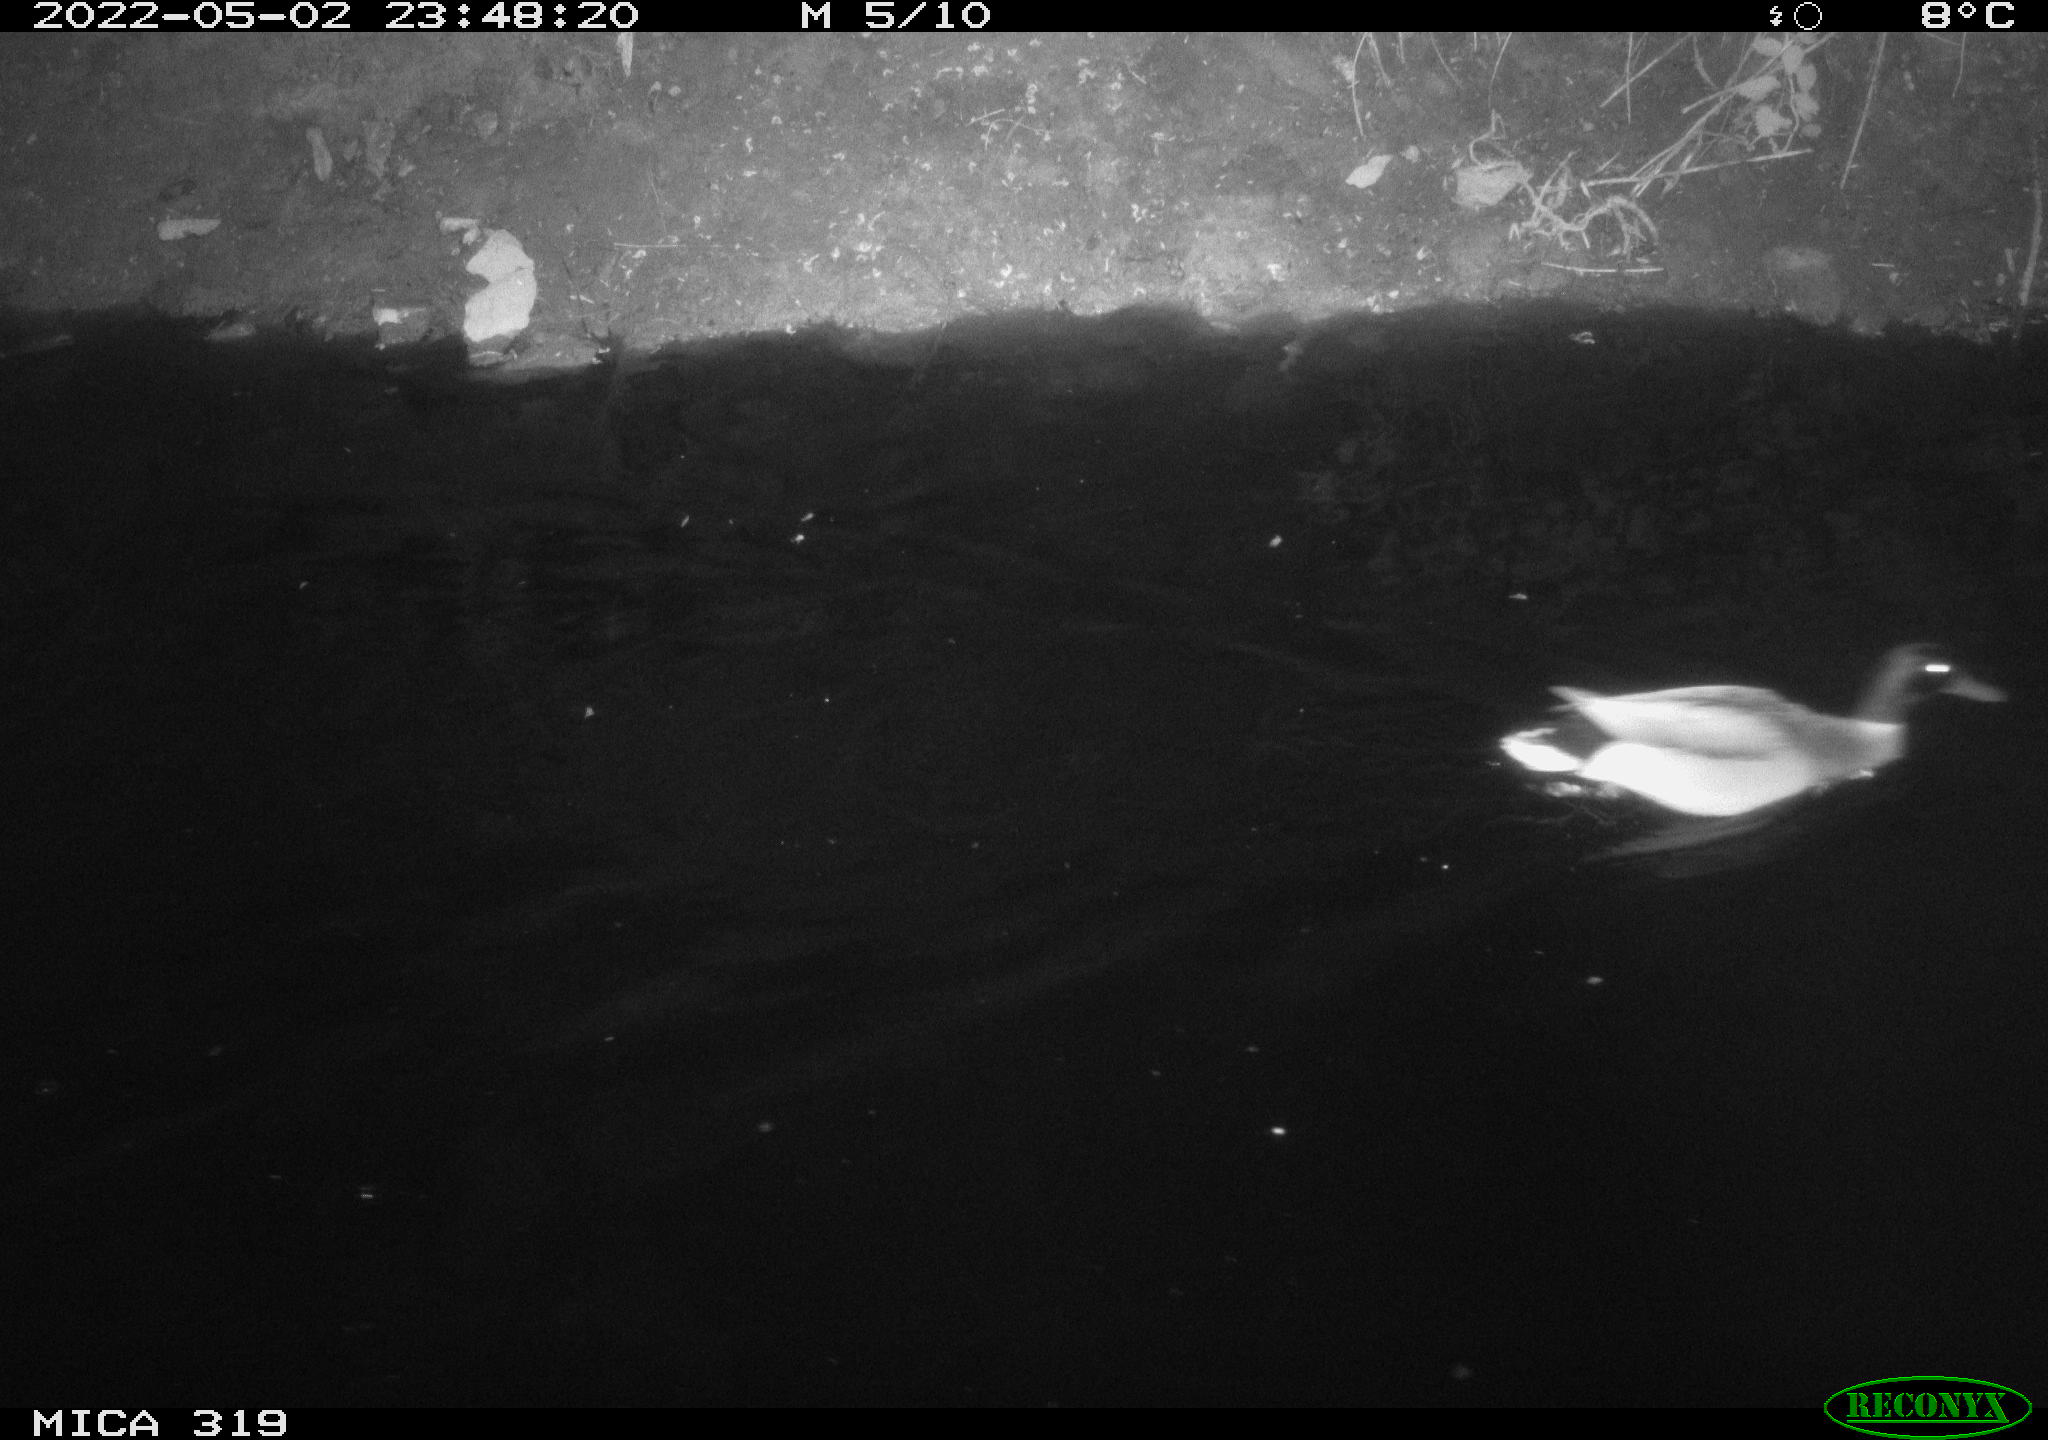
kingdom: Animalia
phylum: Chordata
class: Aves
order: Anseriformes
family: Anatidae
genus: Anas
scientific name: Anas platyrhynchos
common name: Mallard
